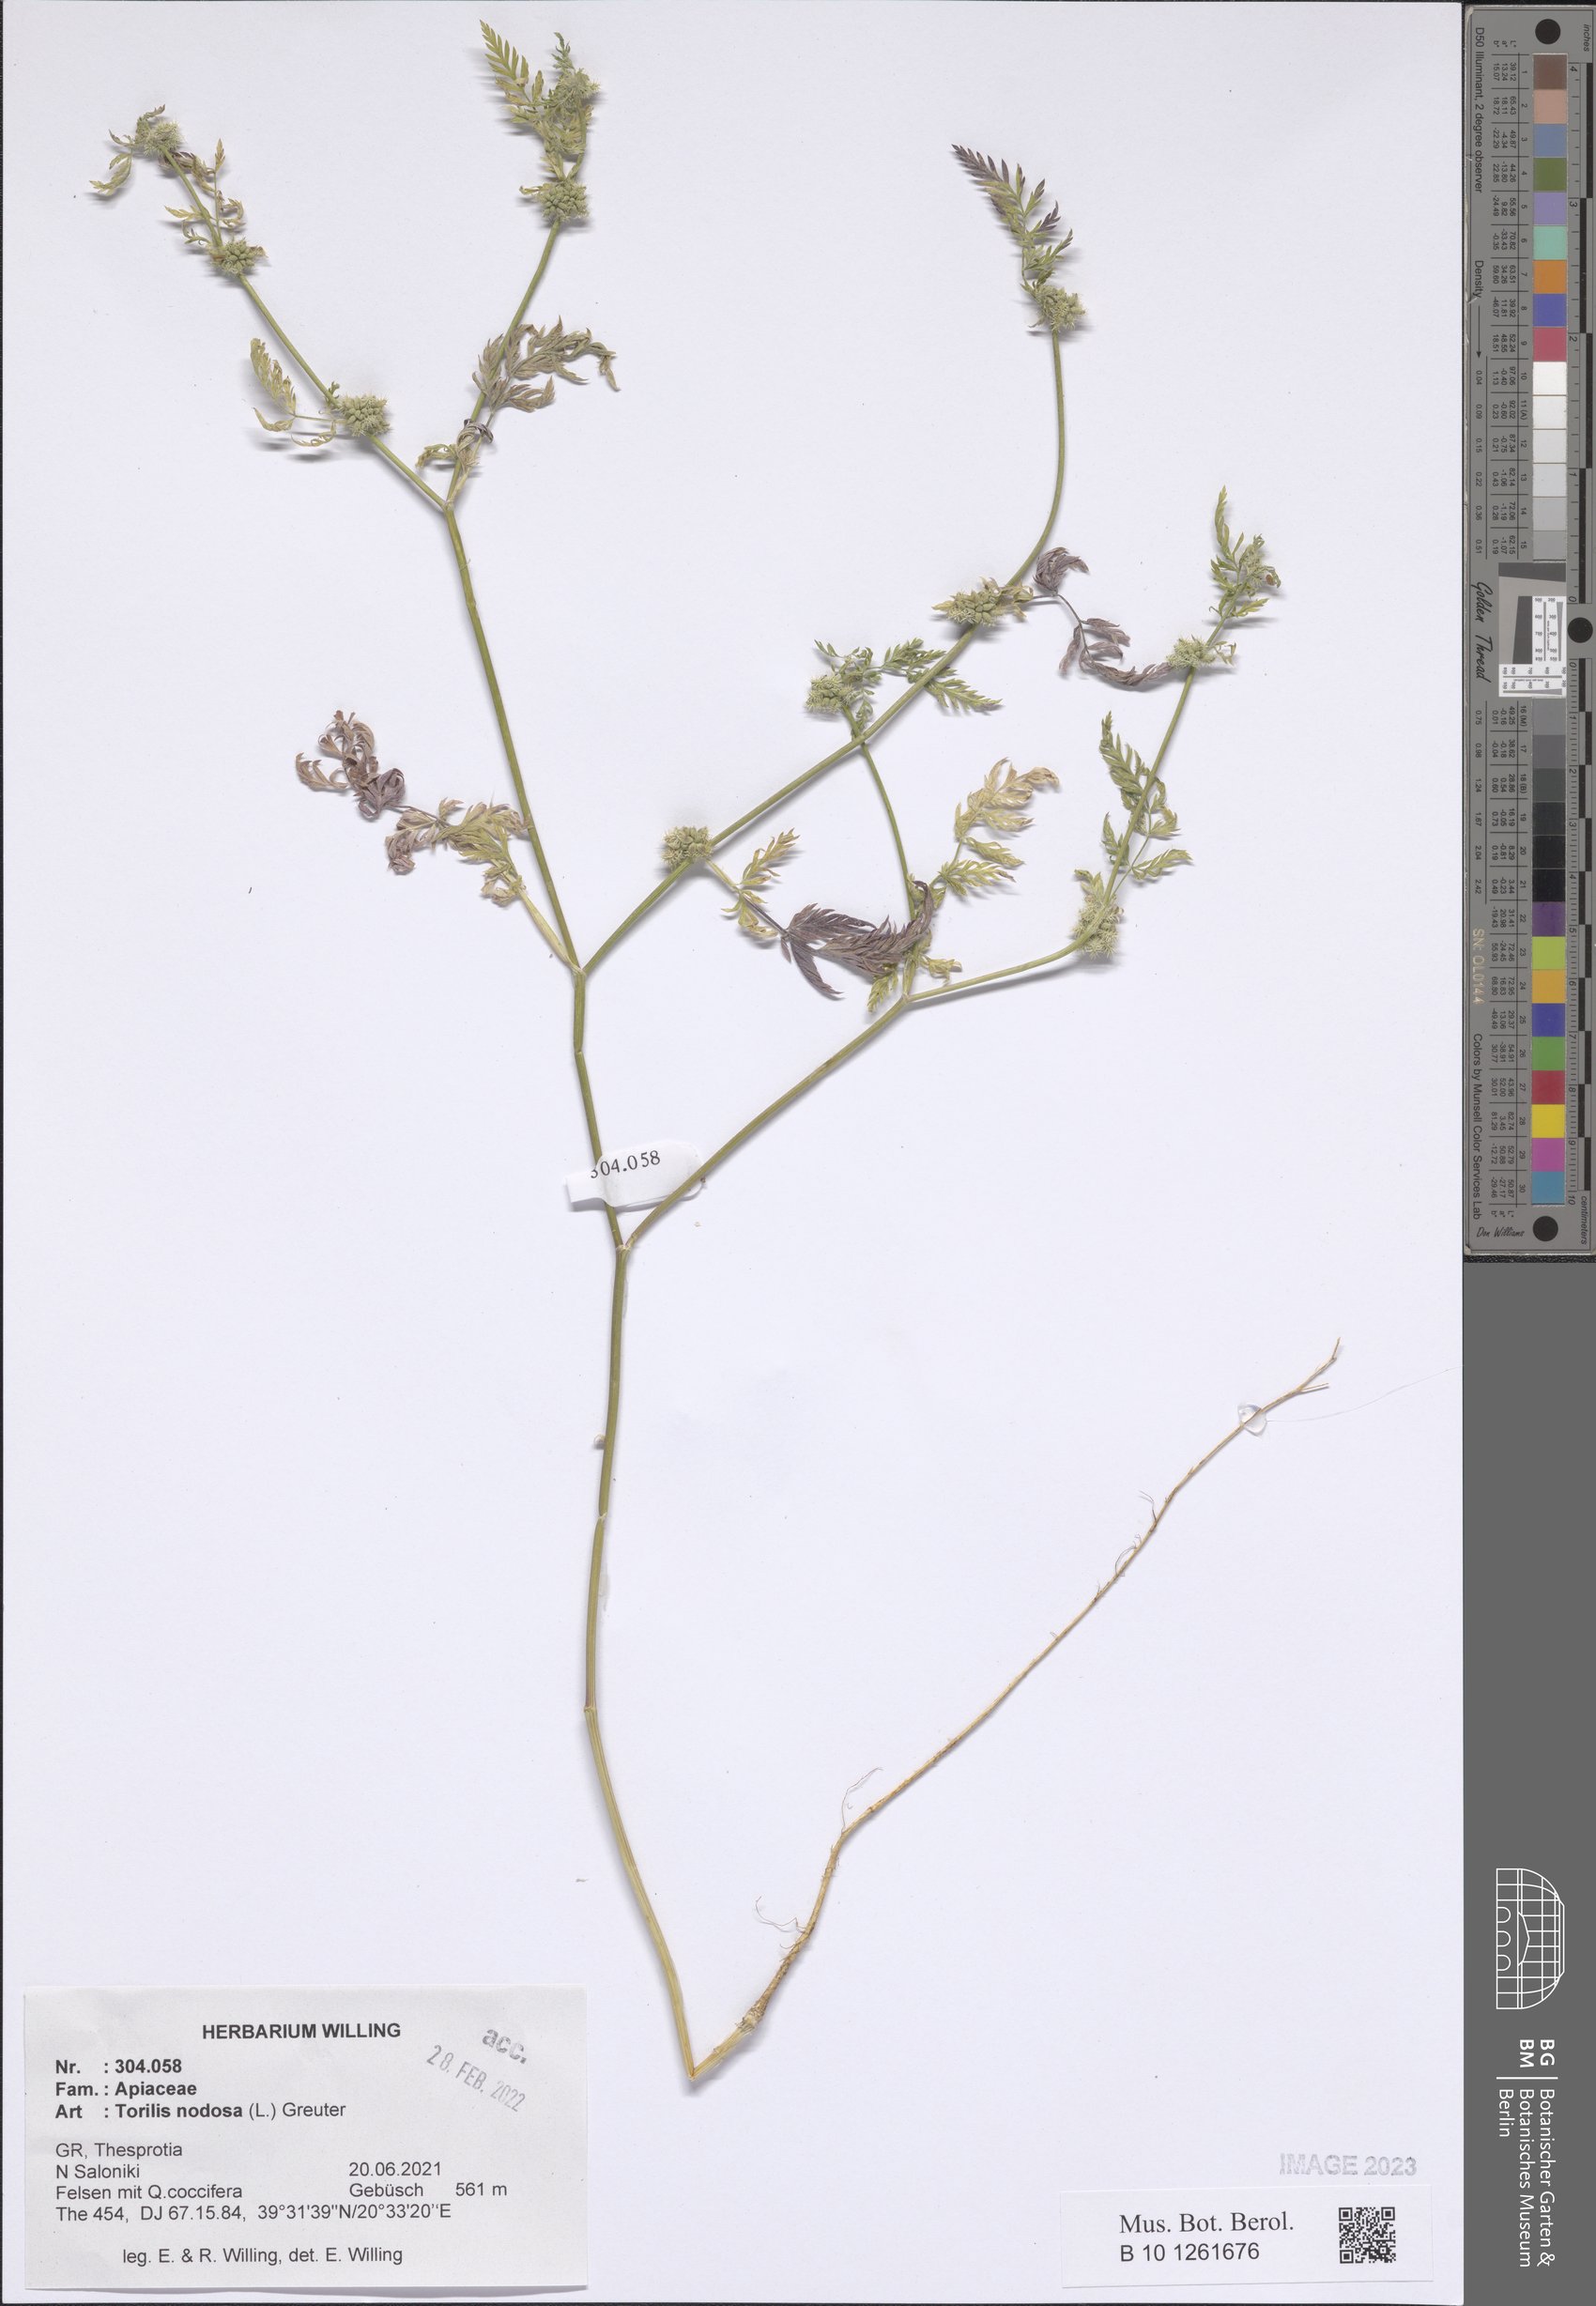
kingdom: Plantae
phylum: Tracheophyta
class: Magnoliopsida
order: Apiales
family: Apiaceae
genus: Torilis
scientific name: Torilis nodosa
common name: Knotted hedge-parsley
